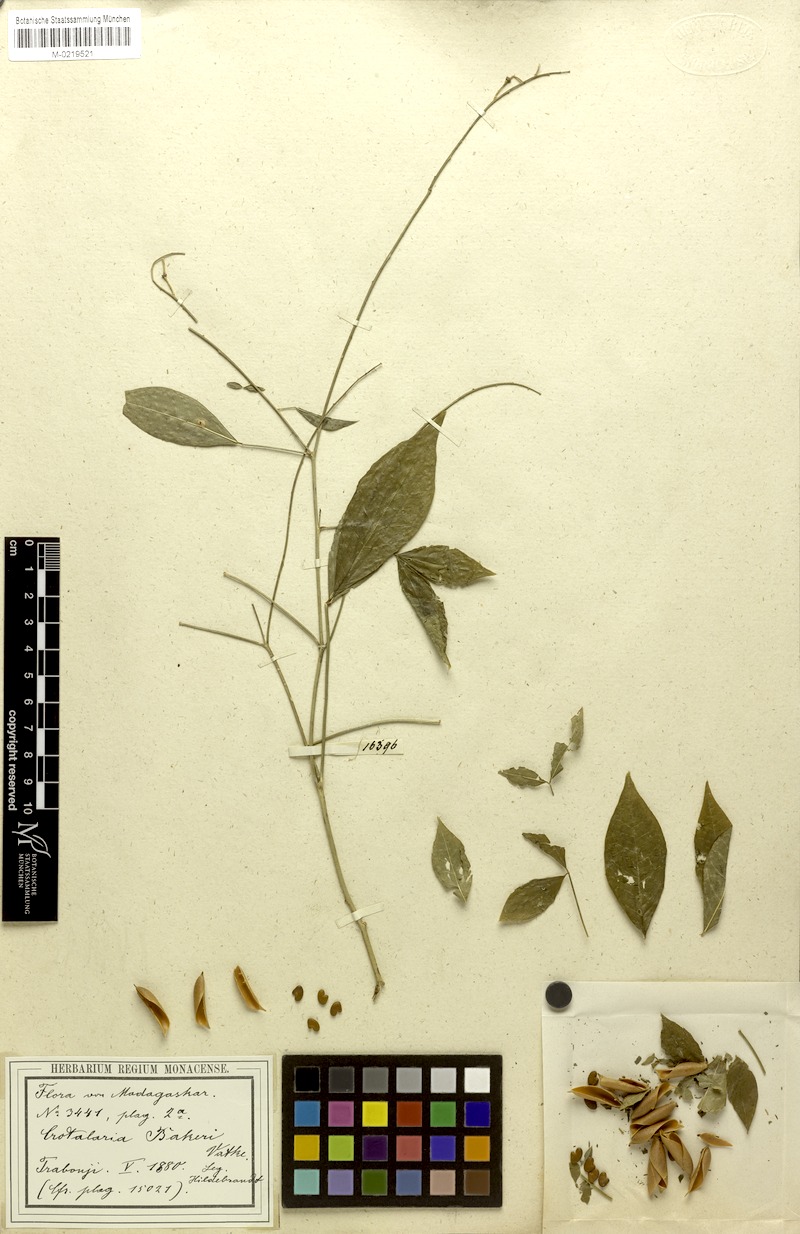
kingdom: Plantae
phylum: Tracheophyta
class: Magnoliopsida
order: Fabales
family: Fabaceae
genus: Crotalaria
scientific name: Crotalaria pervillei
